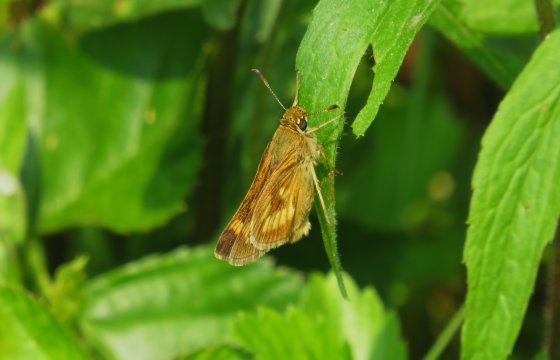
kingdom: Animalia
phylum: Arthropoda
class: Insecta
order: Lepidoptera
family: Hesperiidae
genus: Lon
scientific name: Lon hobomok
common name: Hobomok Skipper
